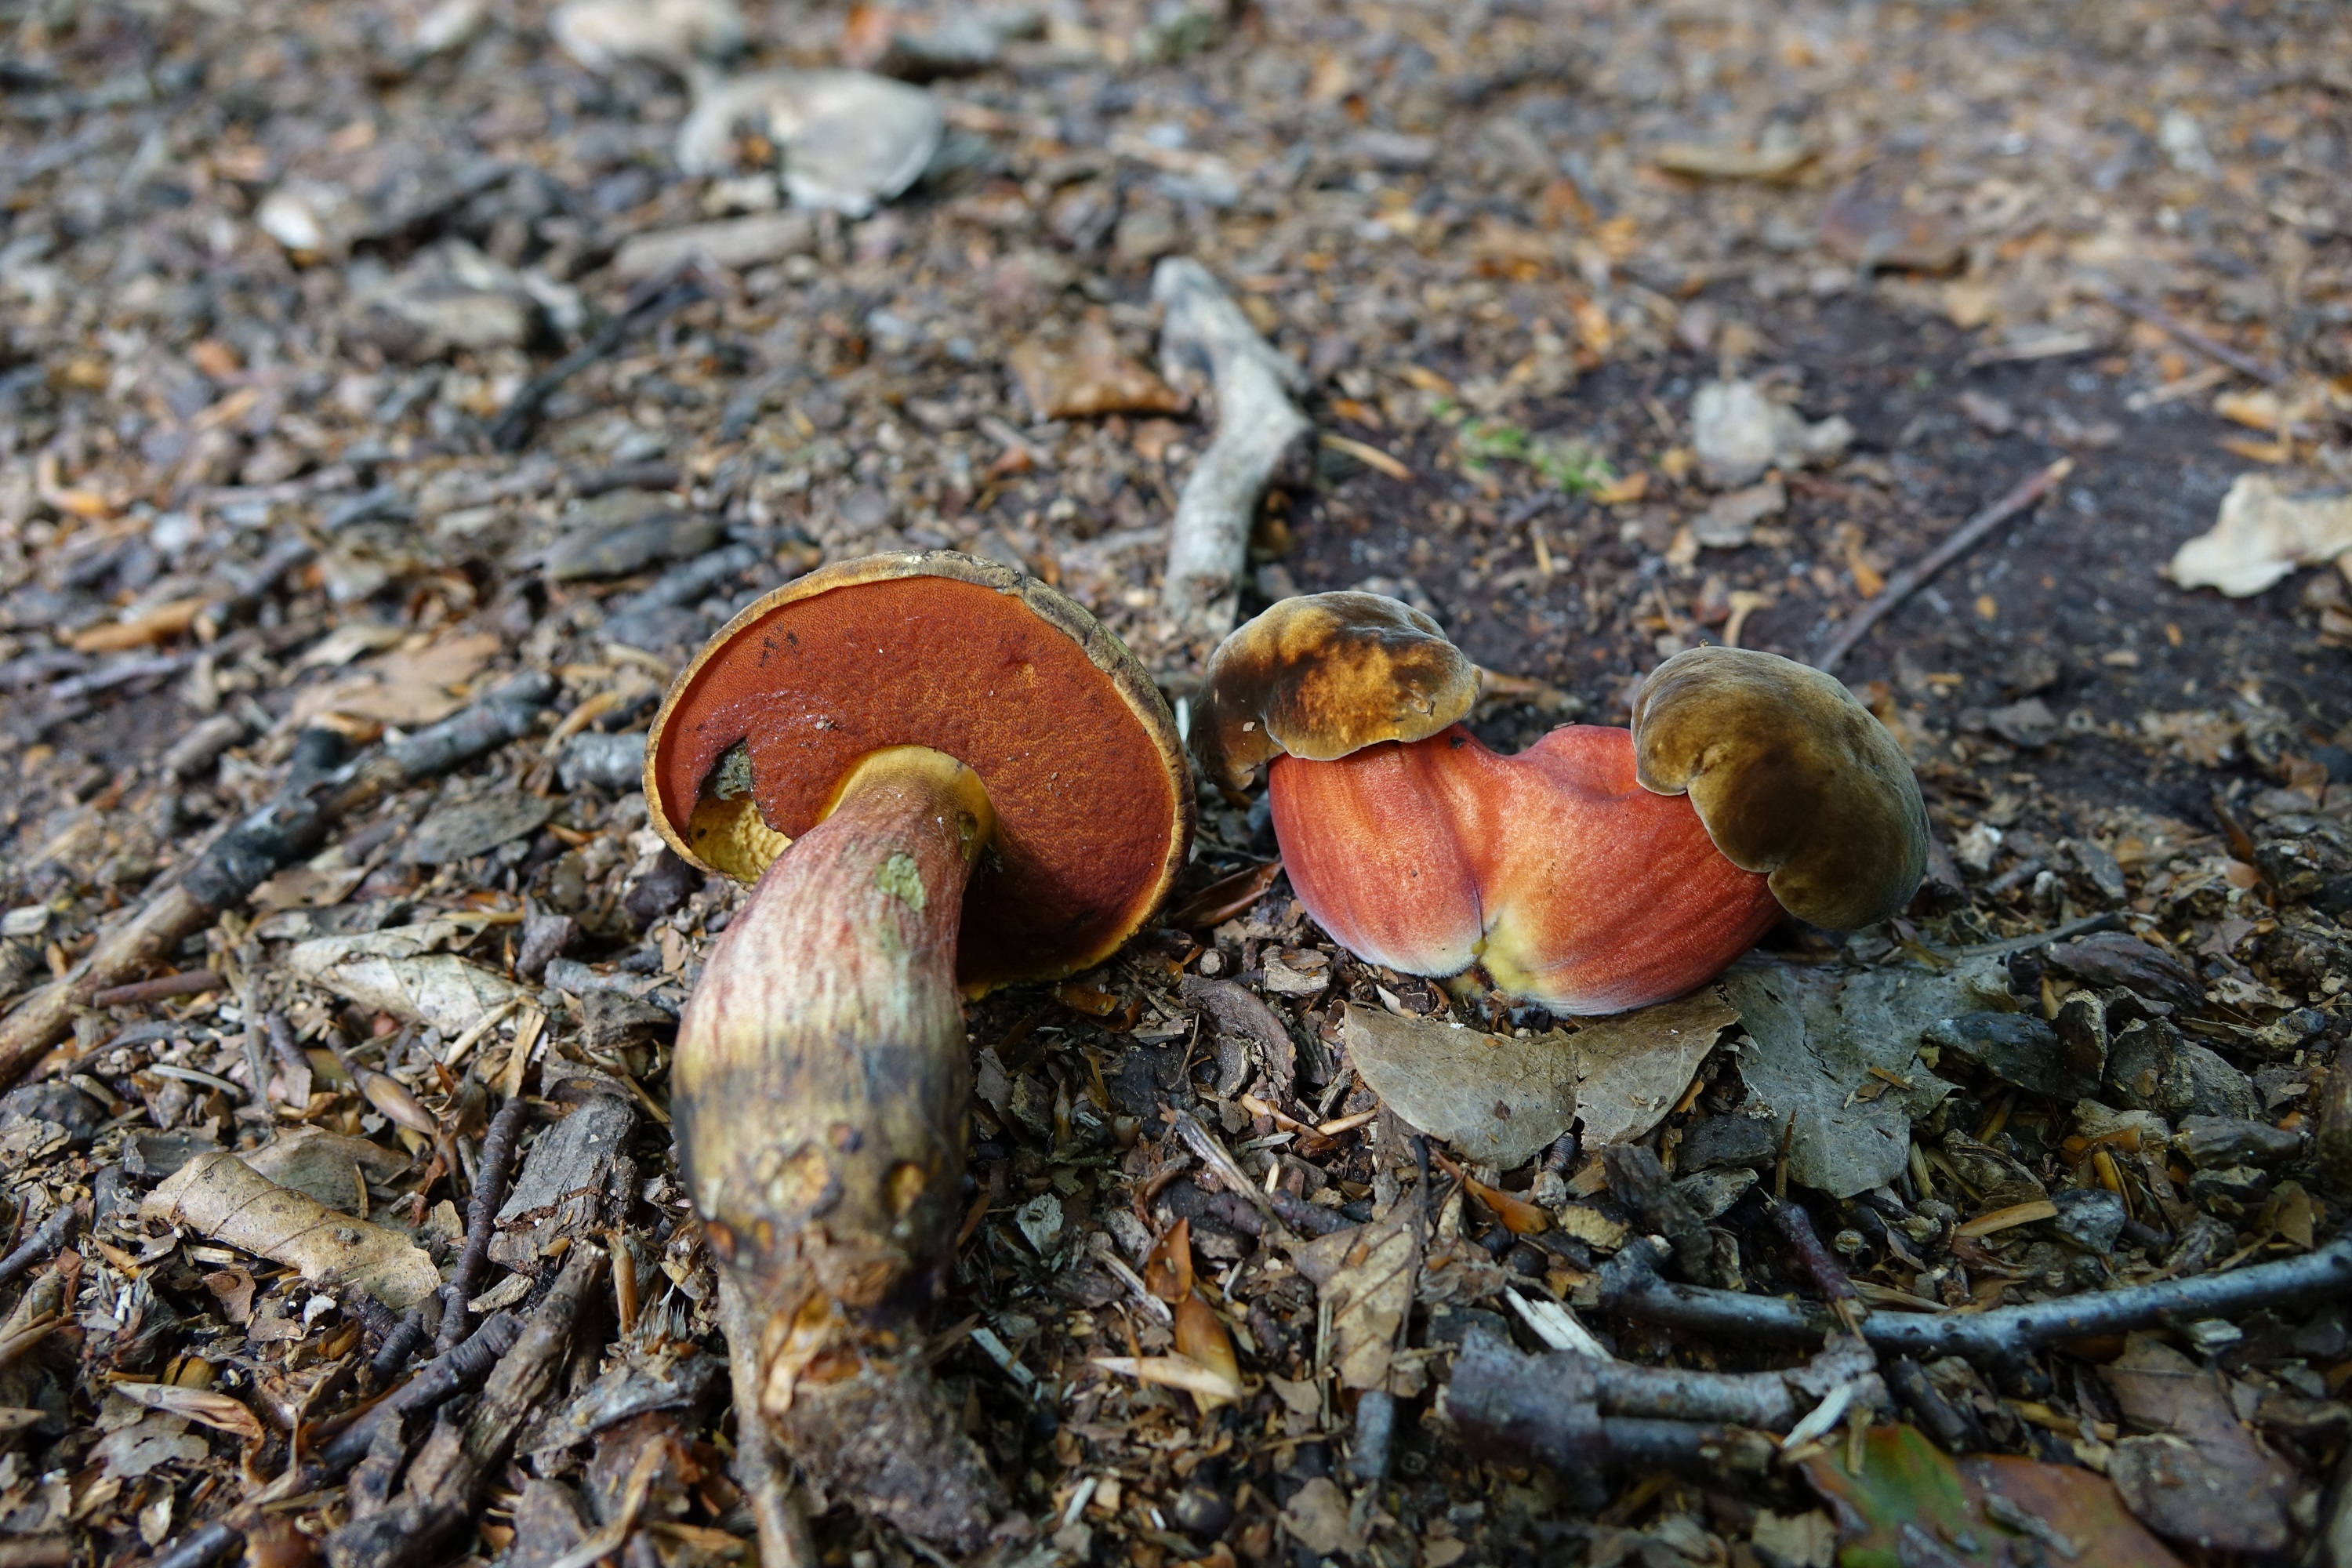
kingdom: Fungi
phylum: Basidiomycota
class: Agaricomycetes
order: Boletales
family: Boletaceae
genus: Neoboletus
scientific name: Neoboletus luridiformis
